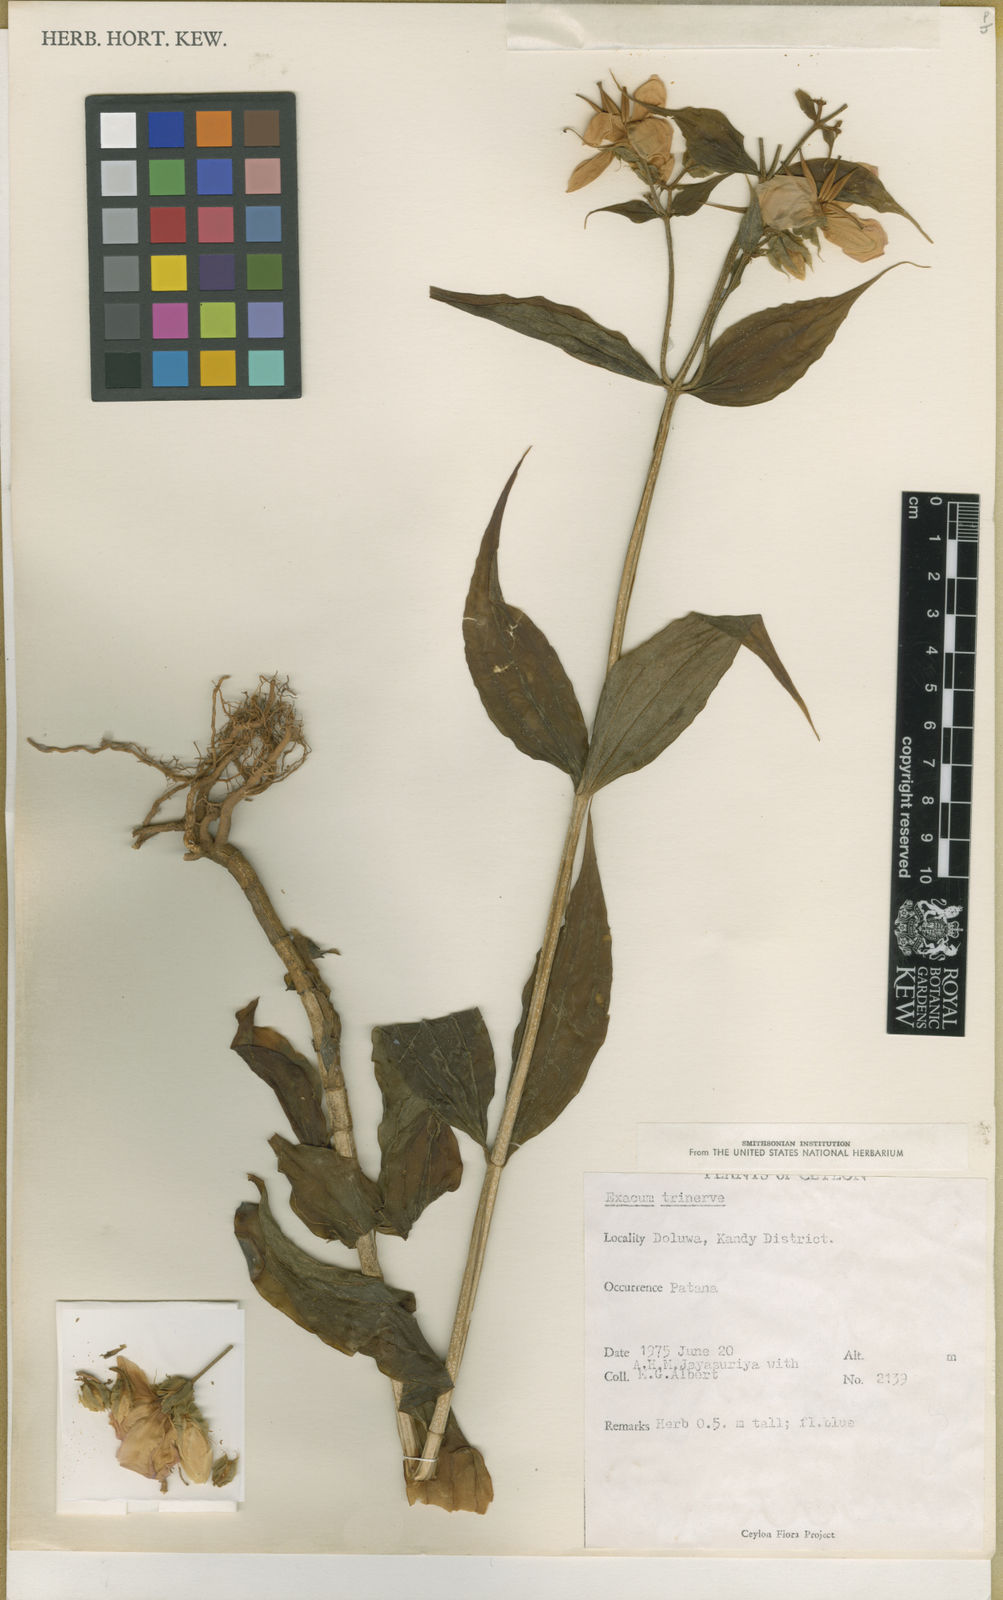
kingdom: Plantae
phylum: Tracheophyta
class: Magnoliopsida
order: Gentianales
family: Gentianaceae
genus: Exacum
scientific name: Exacum
